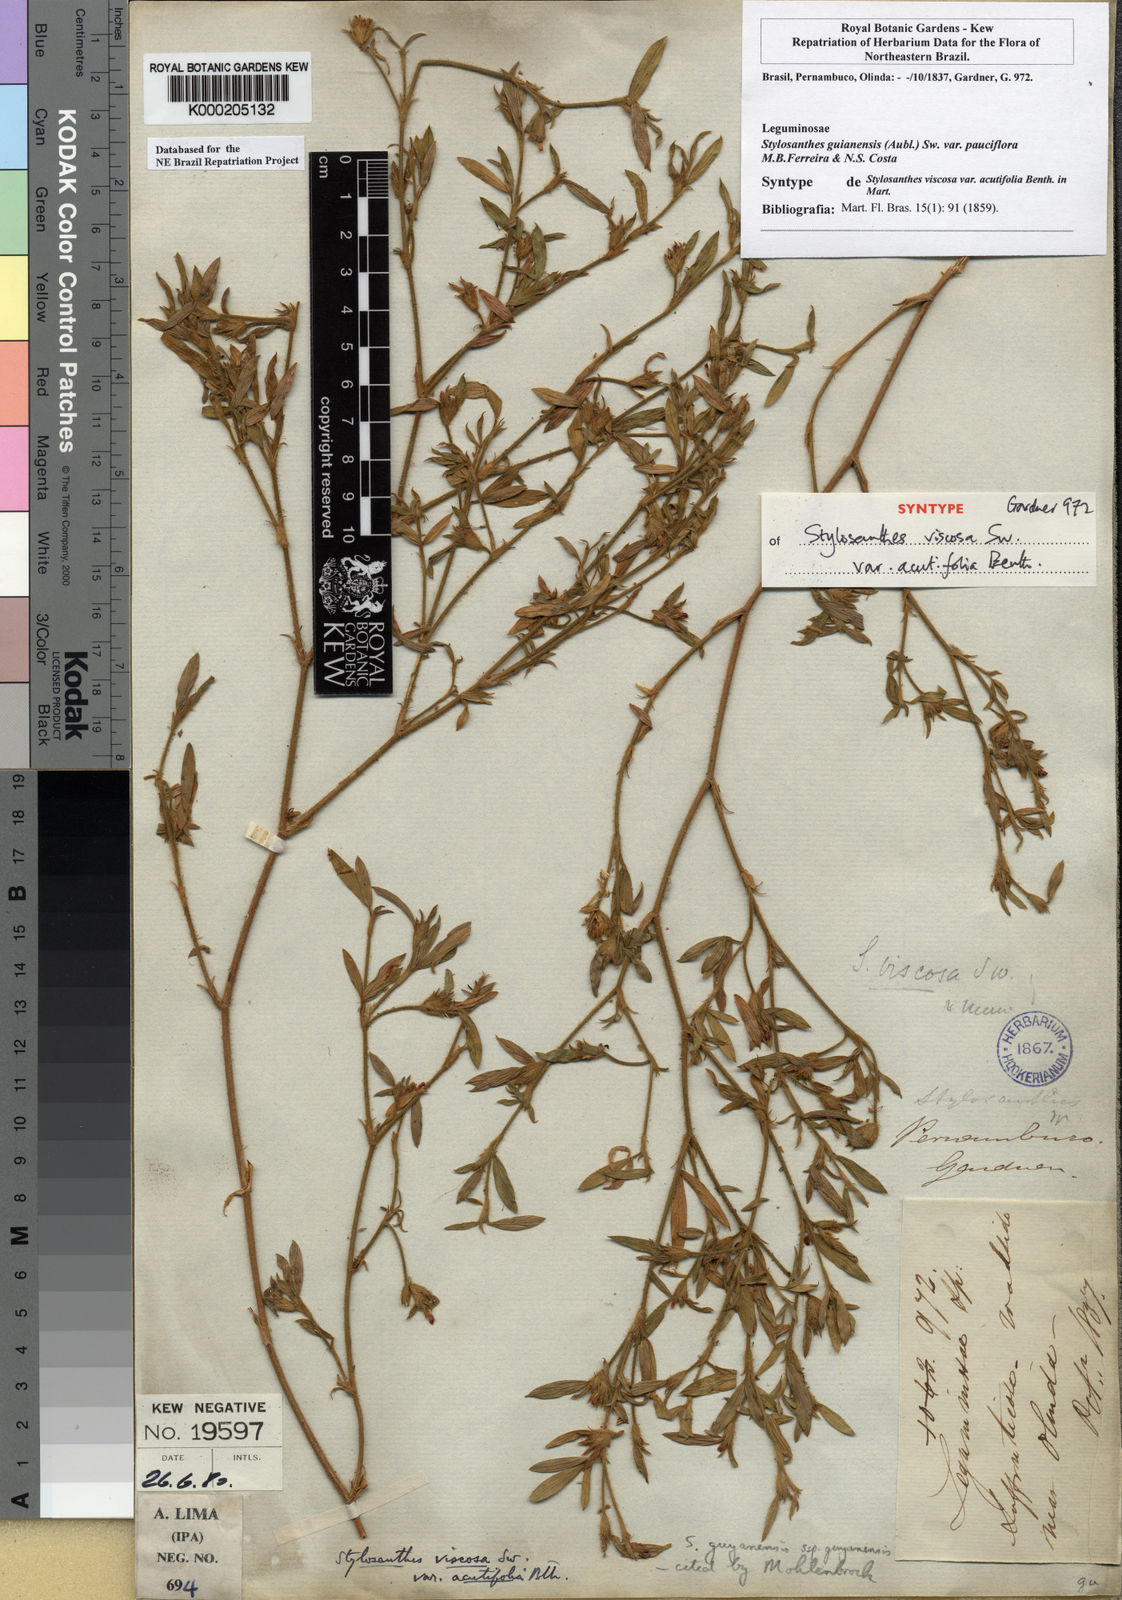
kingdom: Plantae
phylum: Tracheophyta
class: Magnoliopsida
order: Fabales
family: Fabaceae
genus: Stylosanthes
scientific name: Stylosanthes guianensis
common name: Pencil flower
